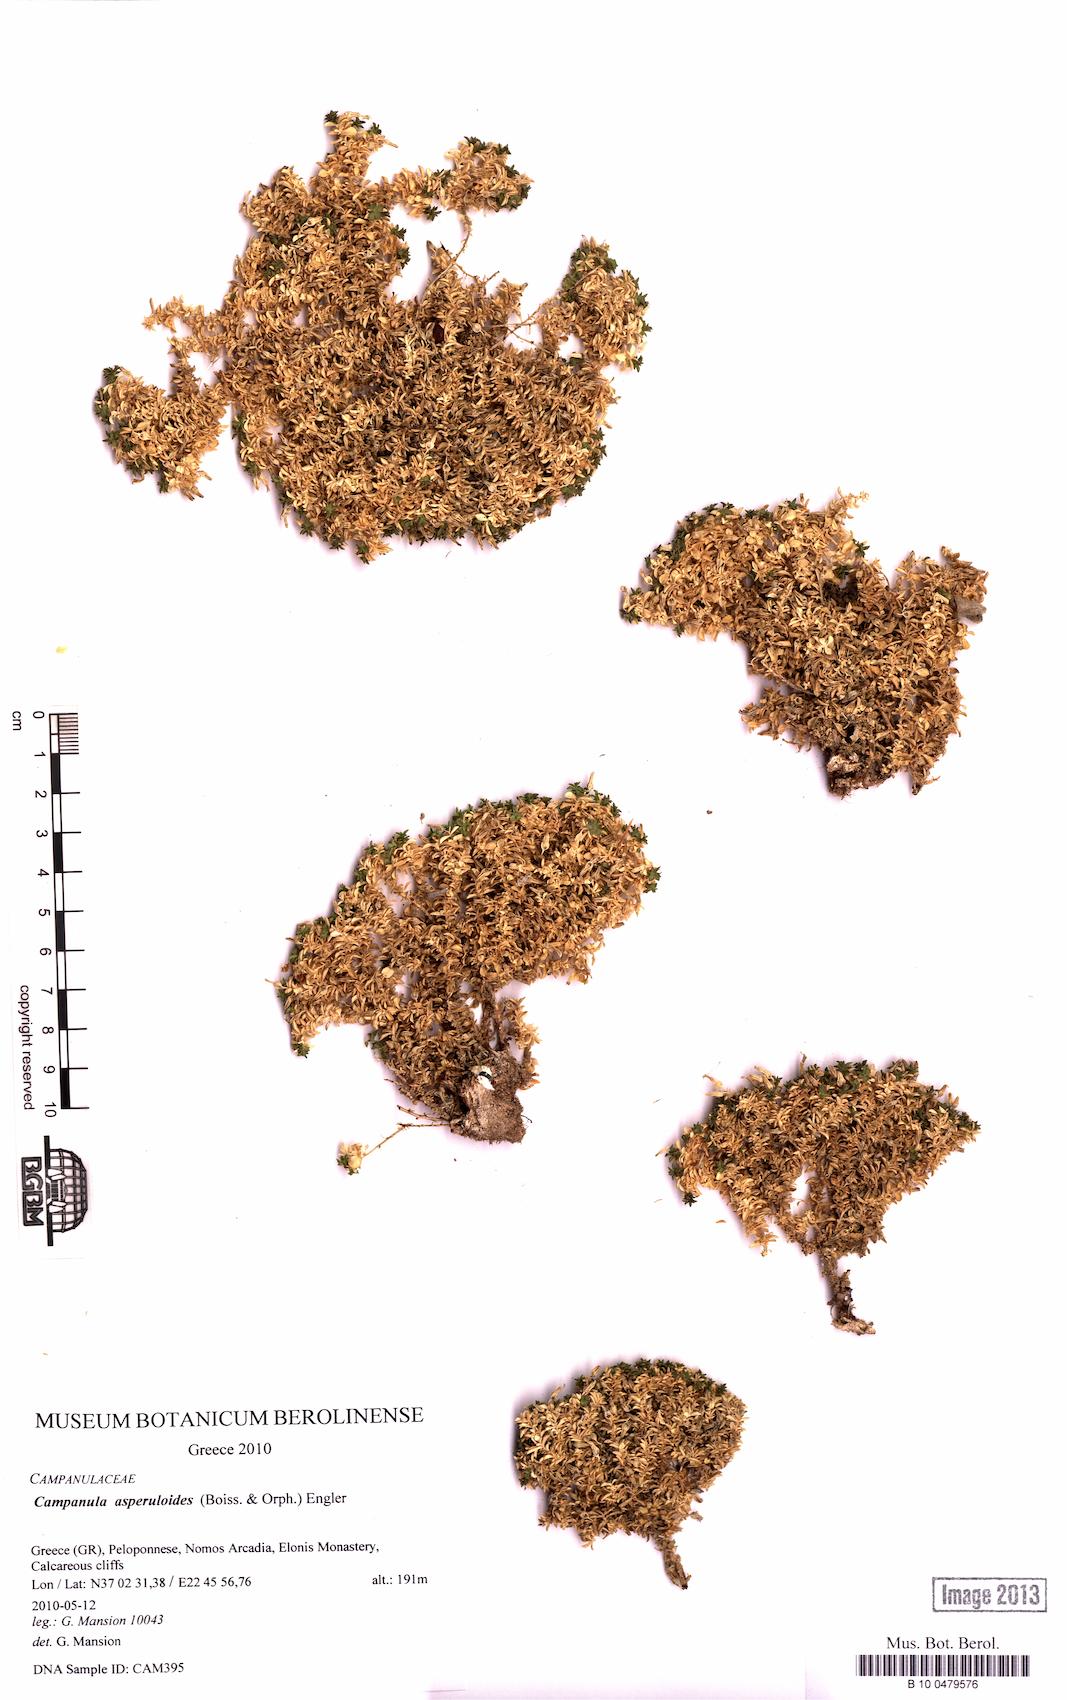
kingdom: Plantae
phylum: Tracheophyta
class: Magnoliopsida
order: Asterales
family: Campanulaceae
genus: Campanula
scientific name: Campanula asperuloides
